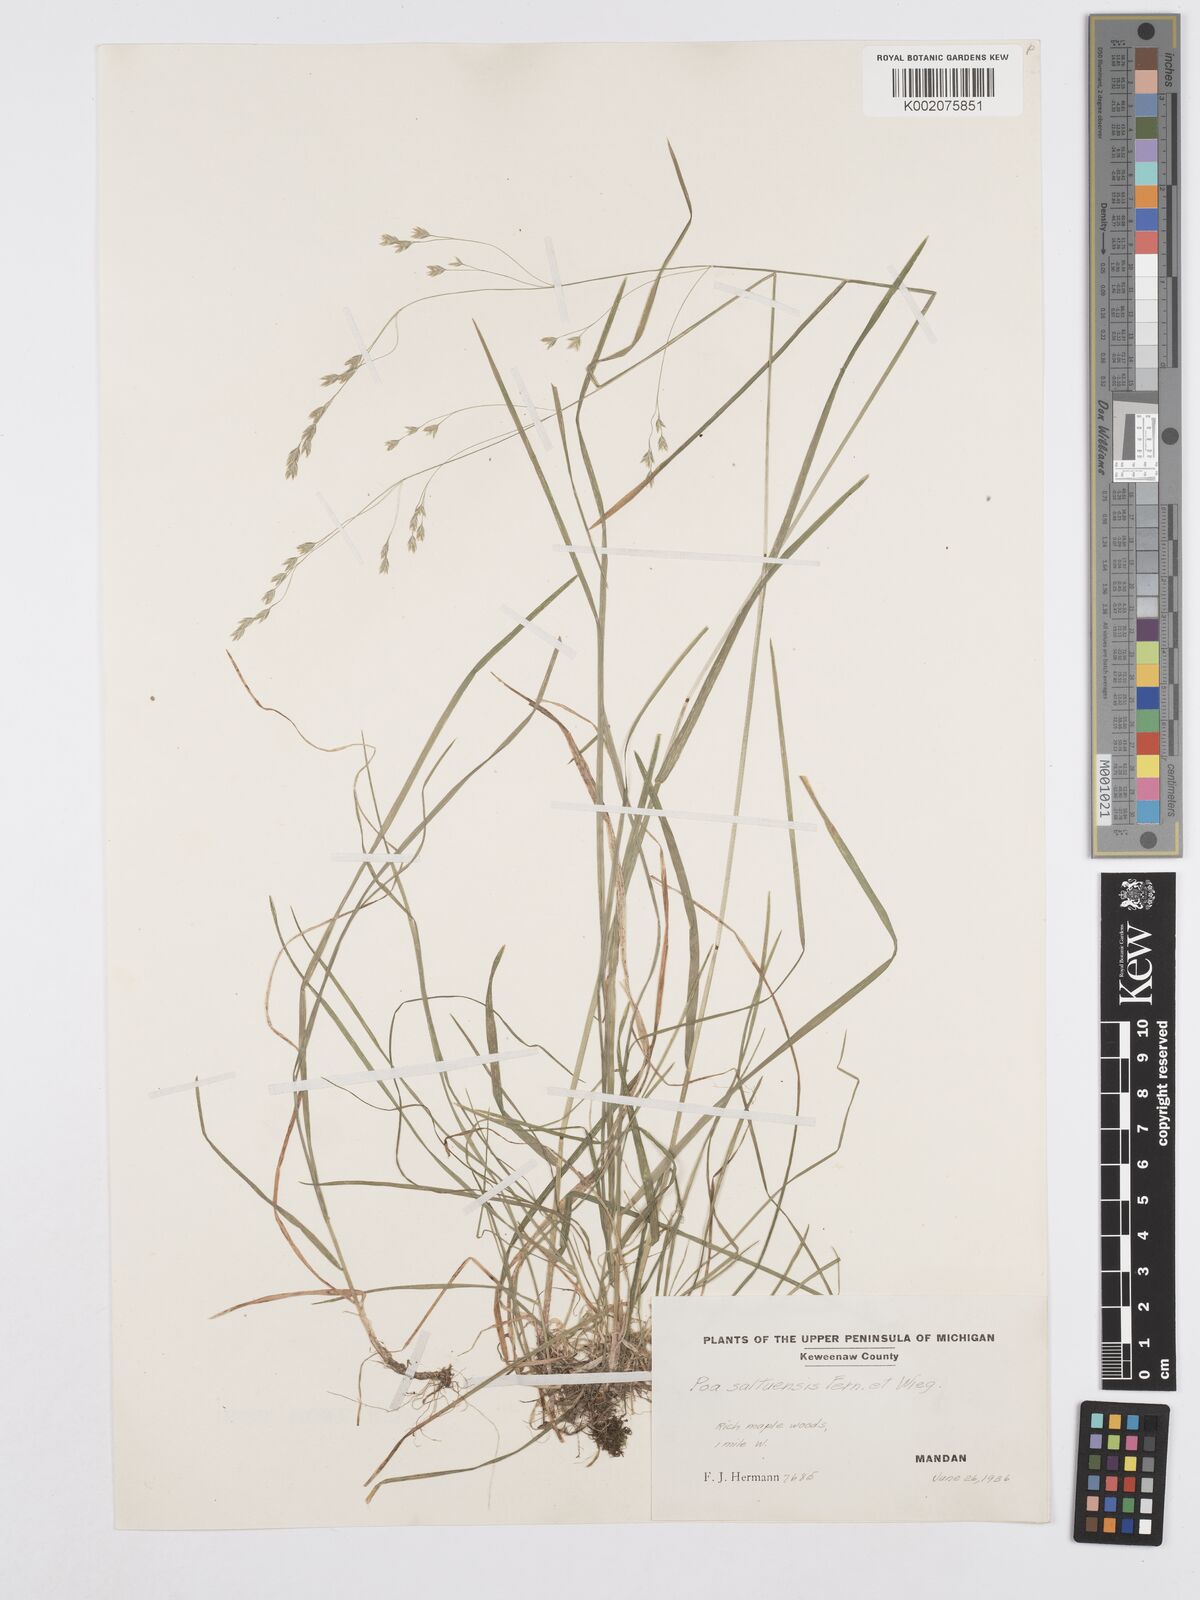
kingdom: Plantae
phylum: Tracheophyta
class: Liliopsida
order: Poales
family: Poaceae
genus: Poa
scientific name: Poa saltuensis
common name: Bushy pasture speargrass
